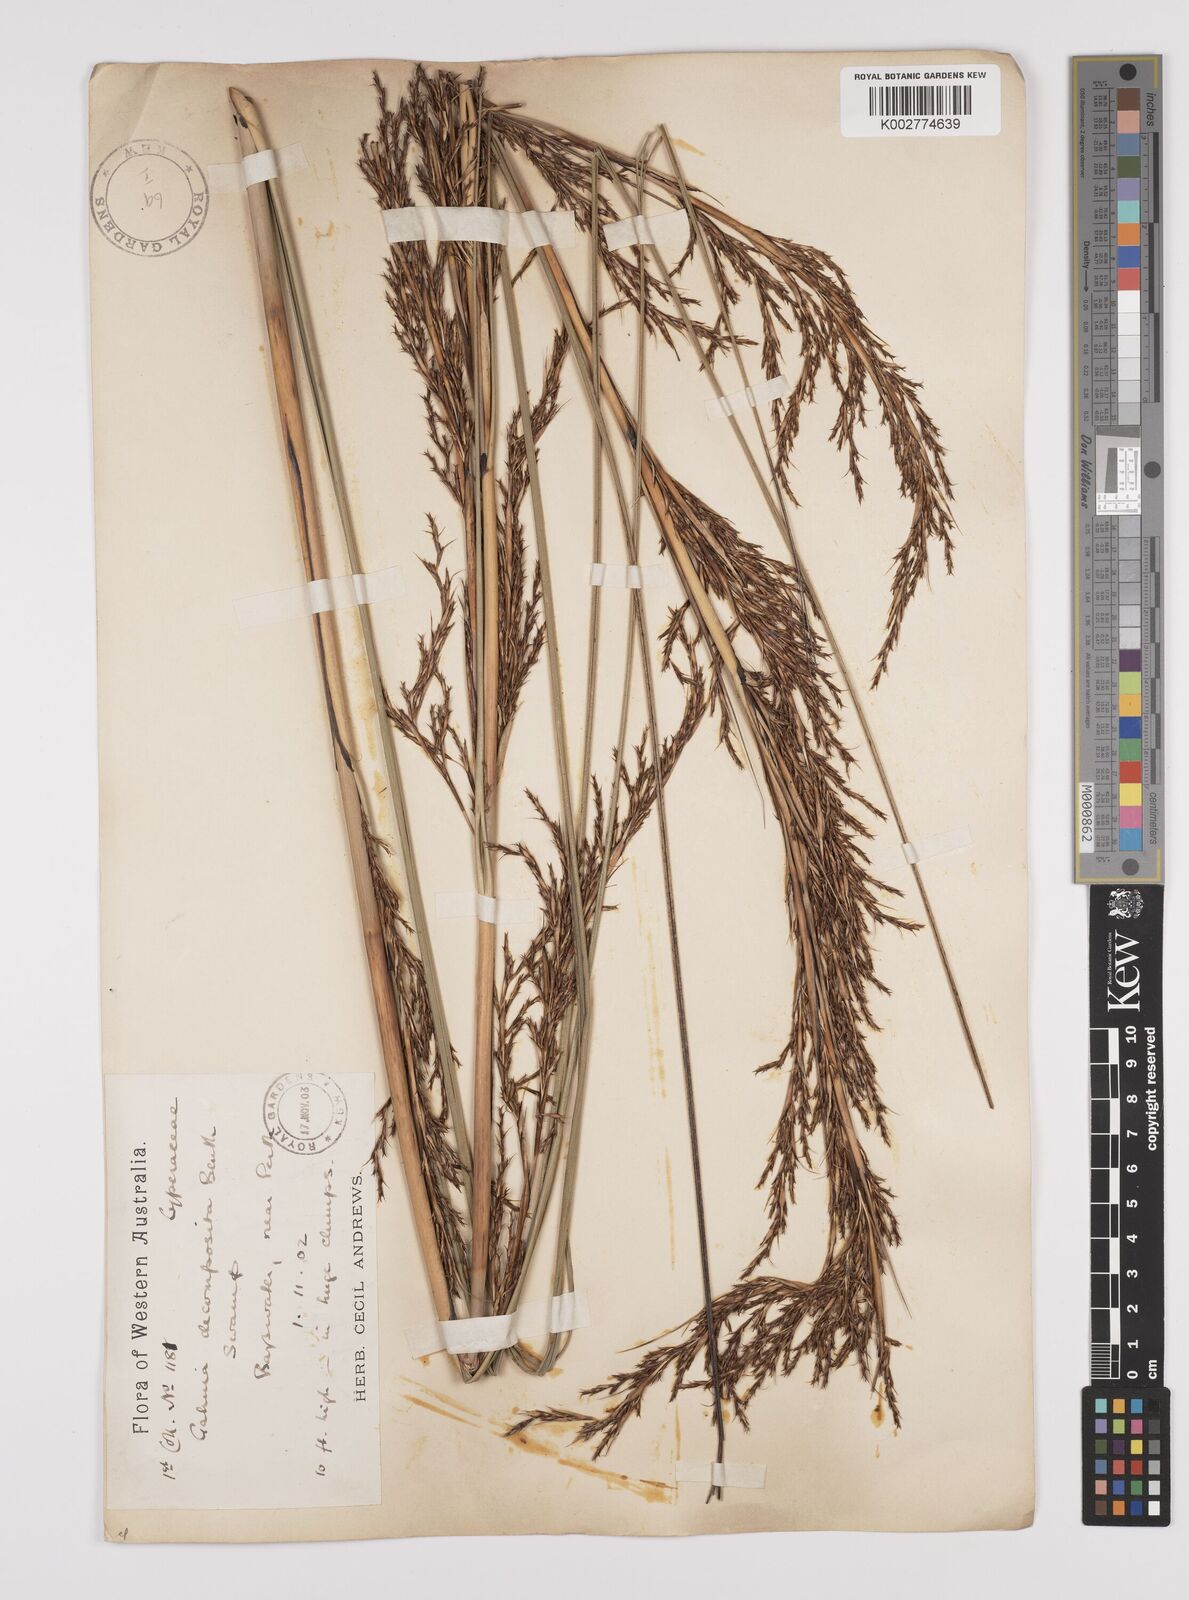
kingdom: Plantae
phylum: Tracheophyta
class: Liliopsida
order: Poales
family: Cyperaceae
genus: Gahnia
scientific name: Gahnia decomposita
